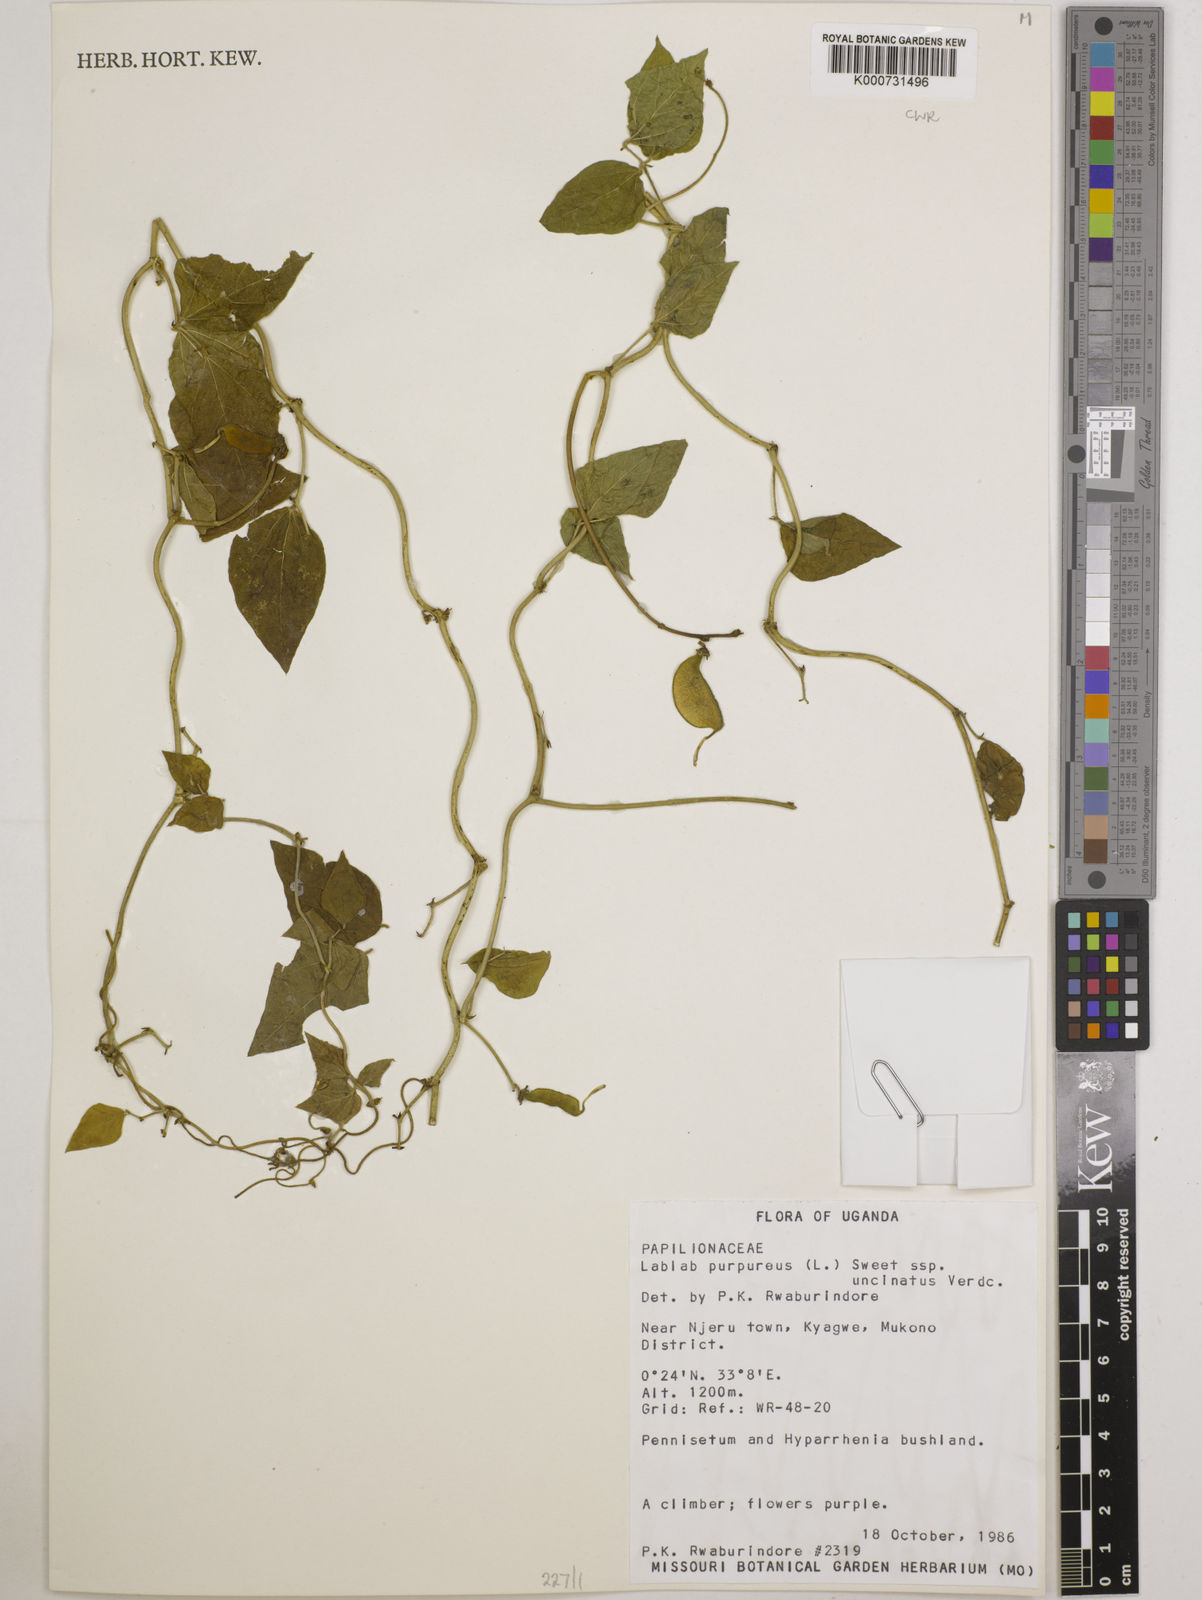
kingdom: Plantae
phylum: Tracheophyta
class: Magnoliopsida
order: Fabales
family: Fabaceae
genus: Lablab
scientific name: Lablab purpureus
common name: Lablab-bean
